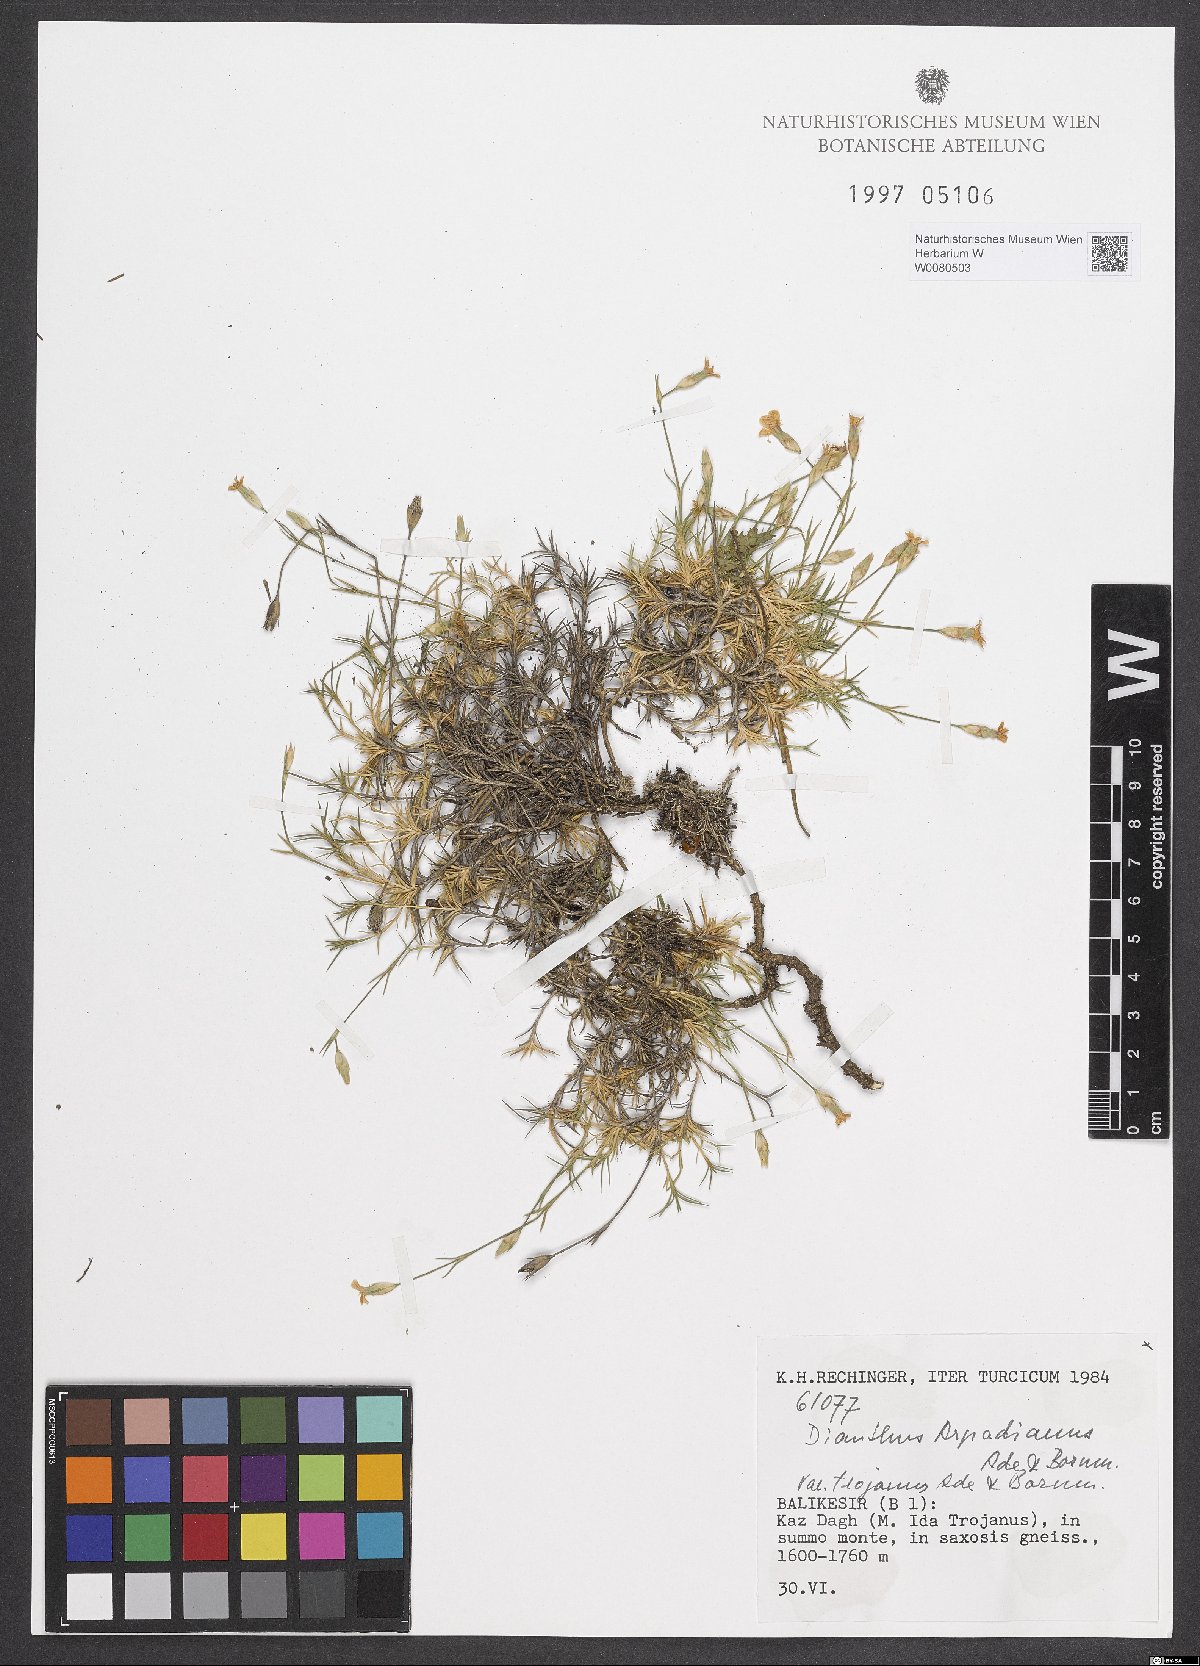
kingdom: Plantae
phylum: Tracheophyta
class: Magnoliopsida
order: Caryophyllales
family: Caryophyllaceae
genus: Dianthus
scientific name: Dianthus arpadianus
